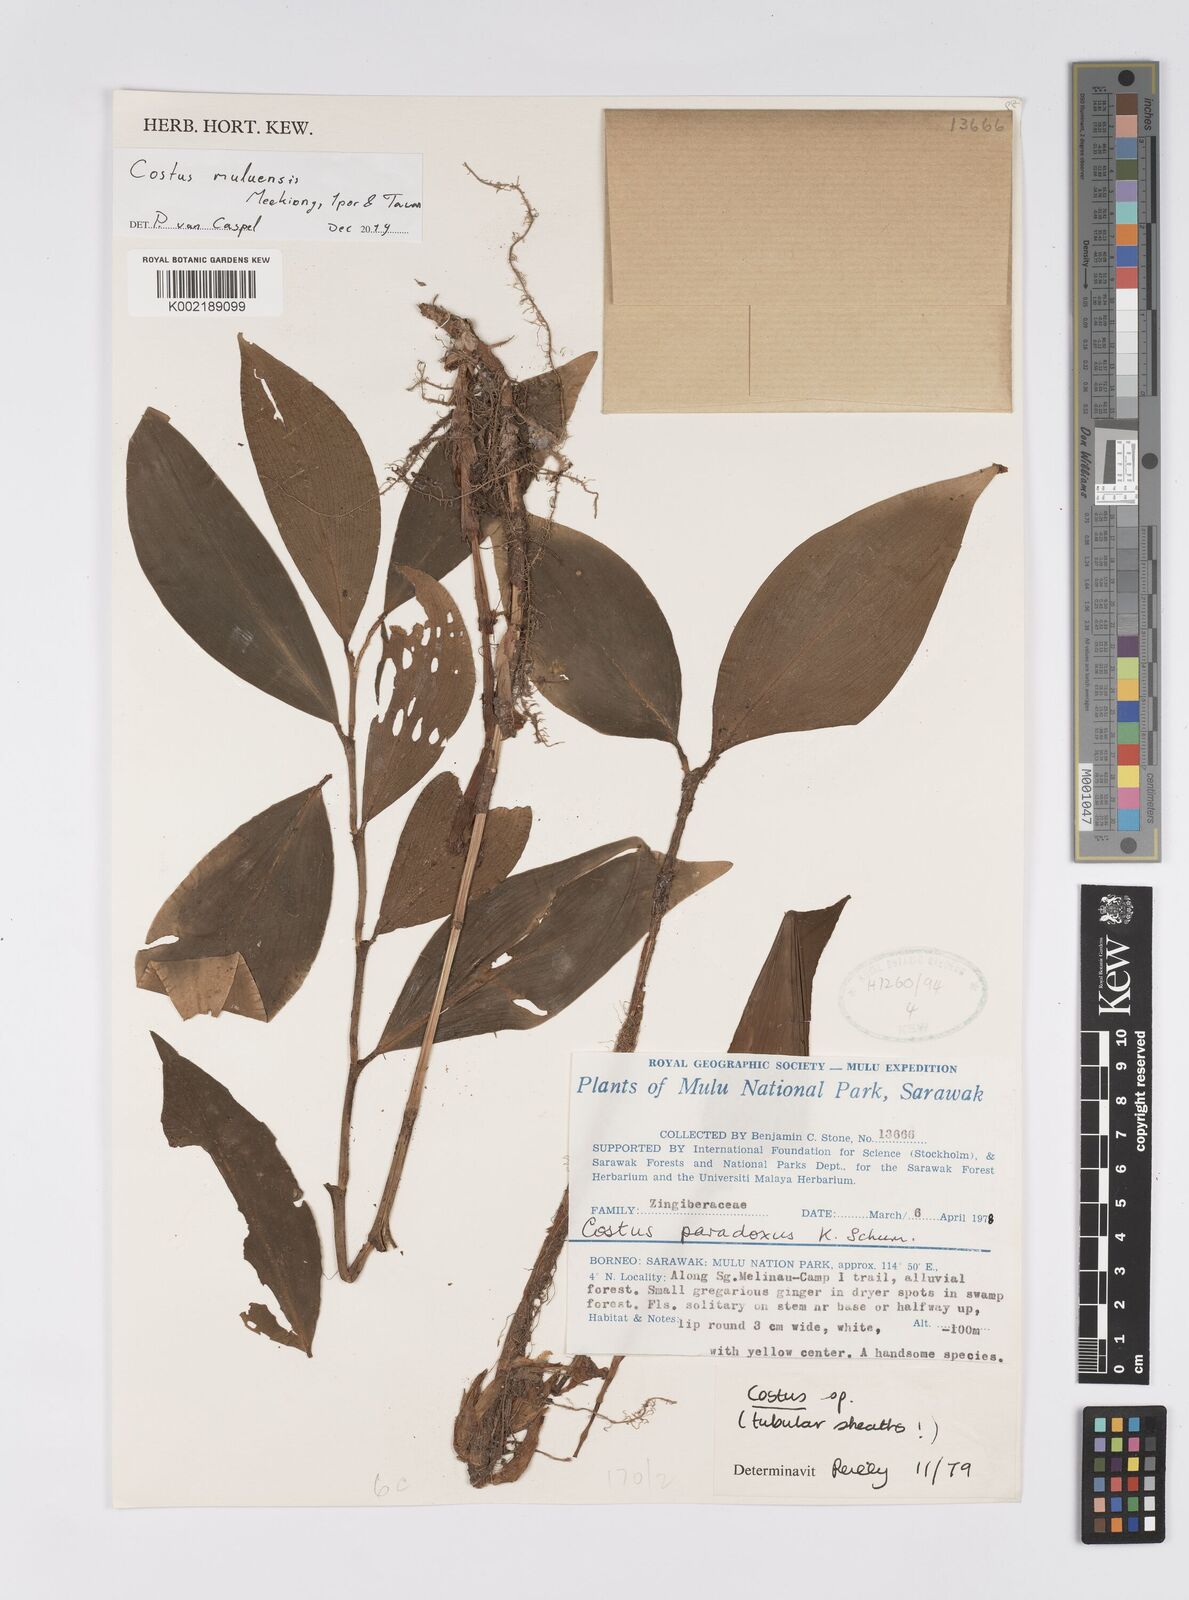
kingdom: Plantae
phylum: Tracheophyta
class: Liliopsida
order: Zingiberales
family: Costaceae
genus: Costus
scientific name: Costus muluensis
